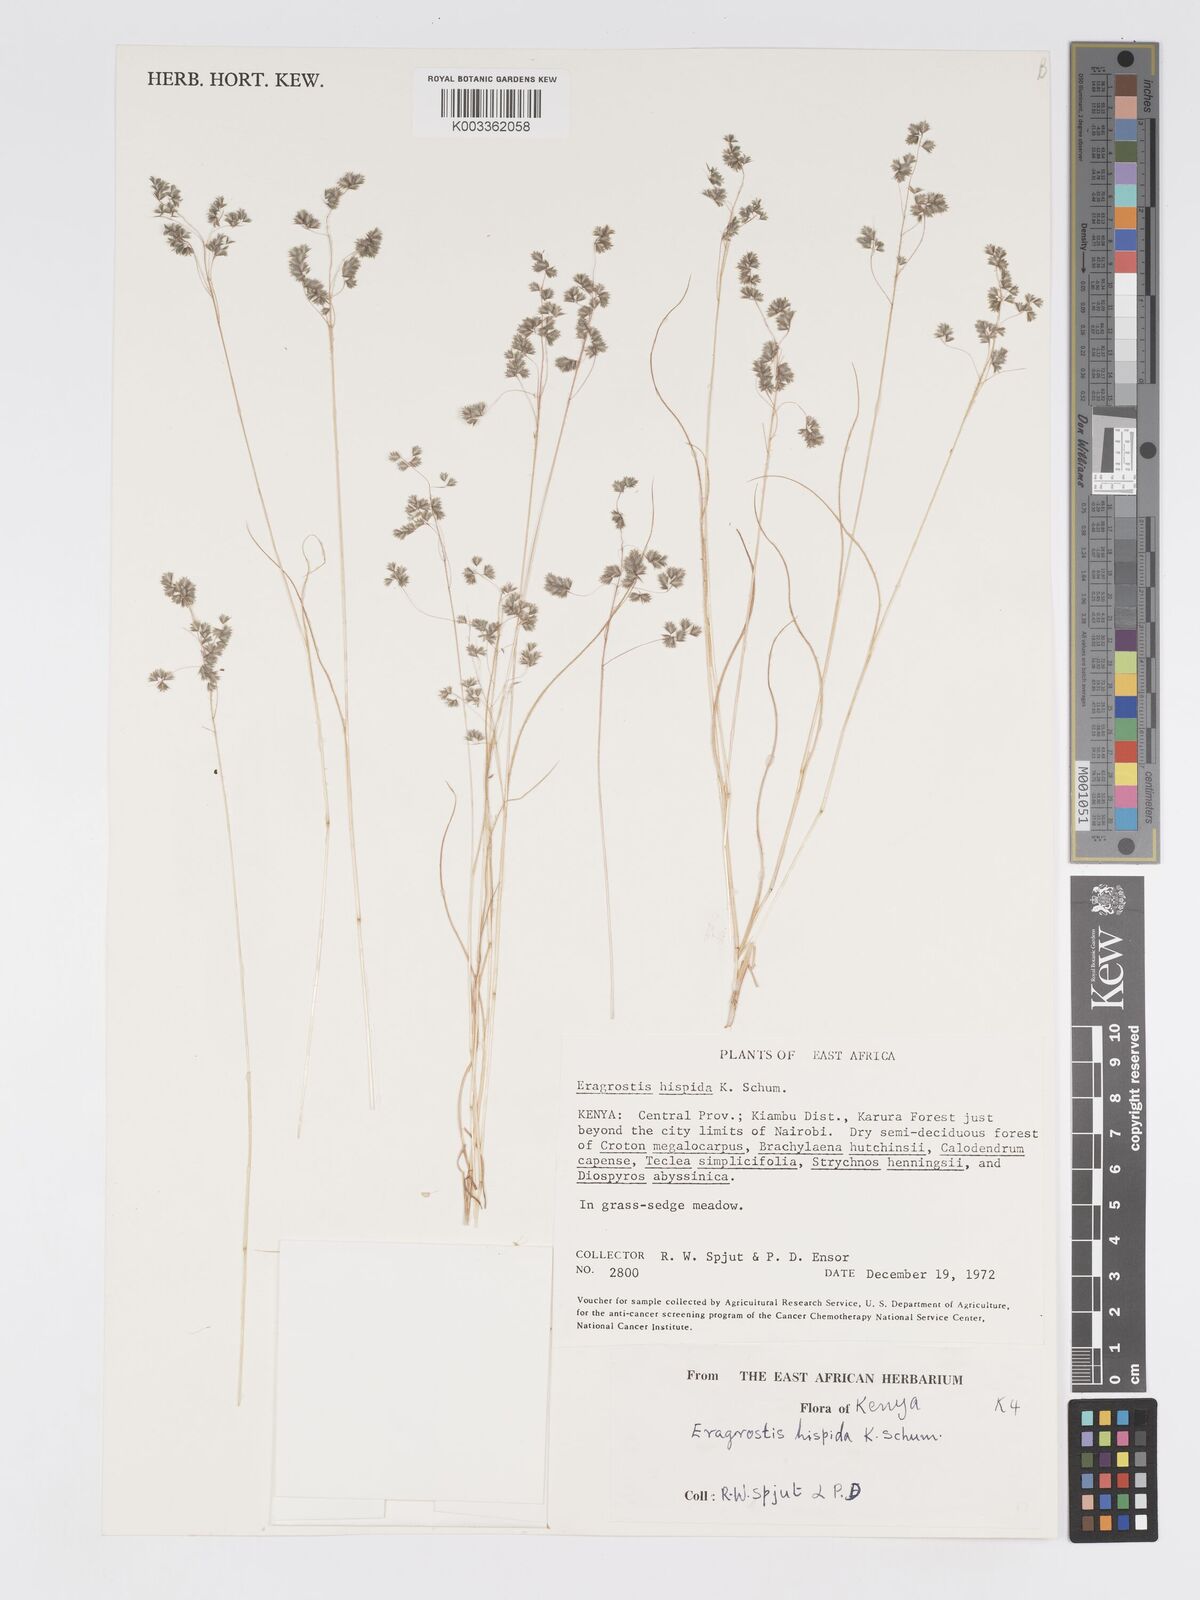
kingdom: Plantae
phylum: Tracheophyta
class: Liliopsida
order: Poales
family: Poaceae
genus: Eragrostis
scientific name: Eragrostis hispida
